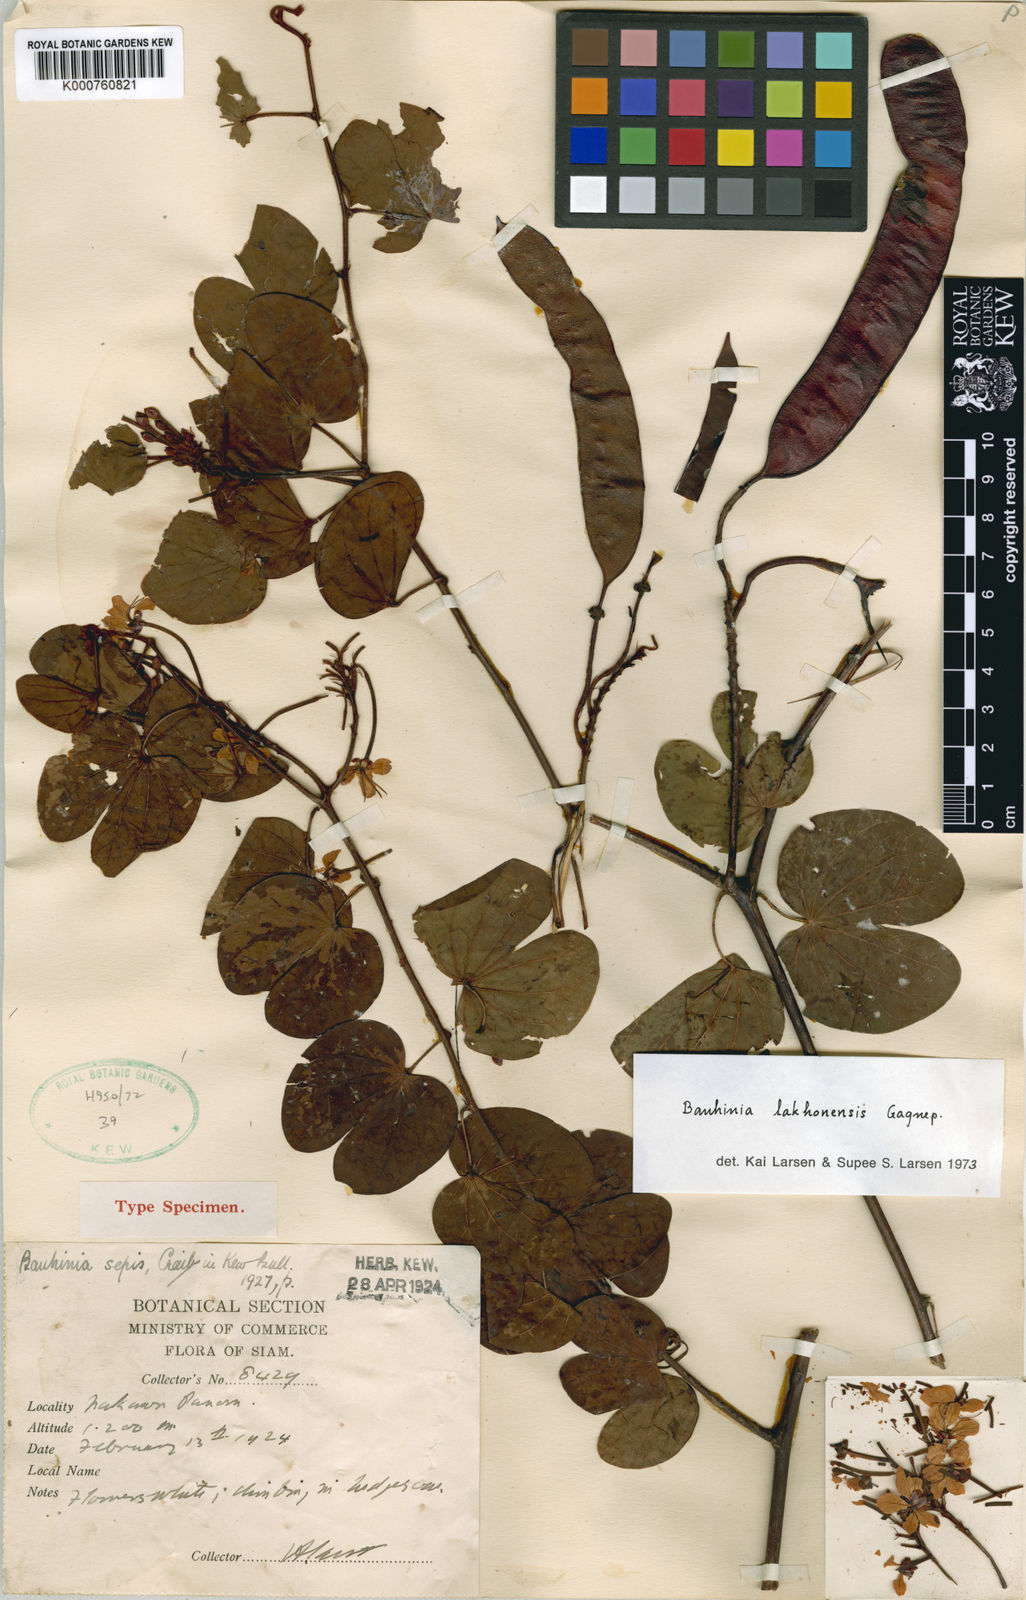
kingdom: Plantae
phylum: Tracheophyta
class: Magnoliopsida
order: Fabales
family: Fabaceae
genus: Cheniella
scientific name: Cheniella lakhonensis
